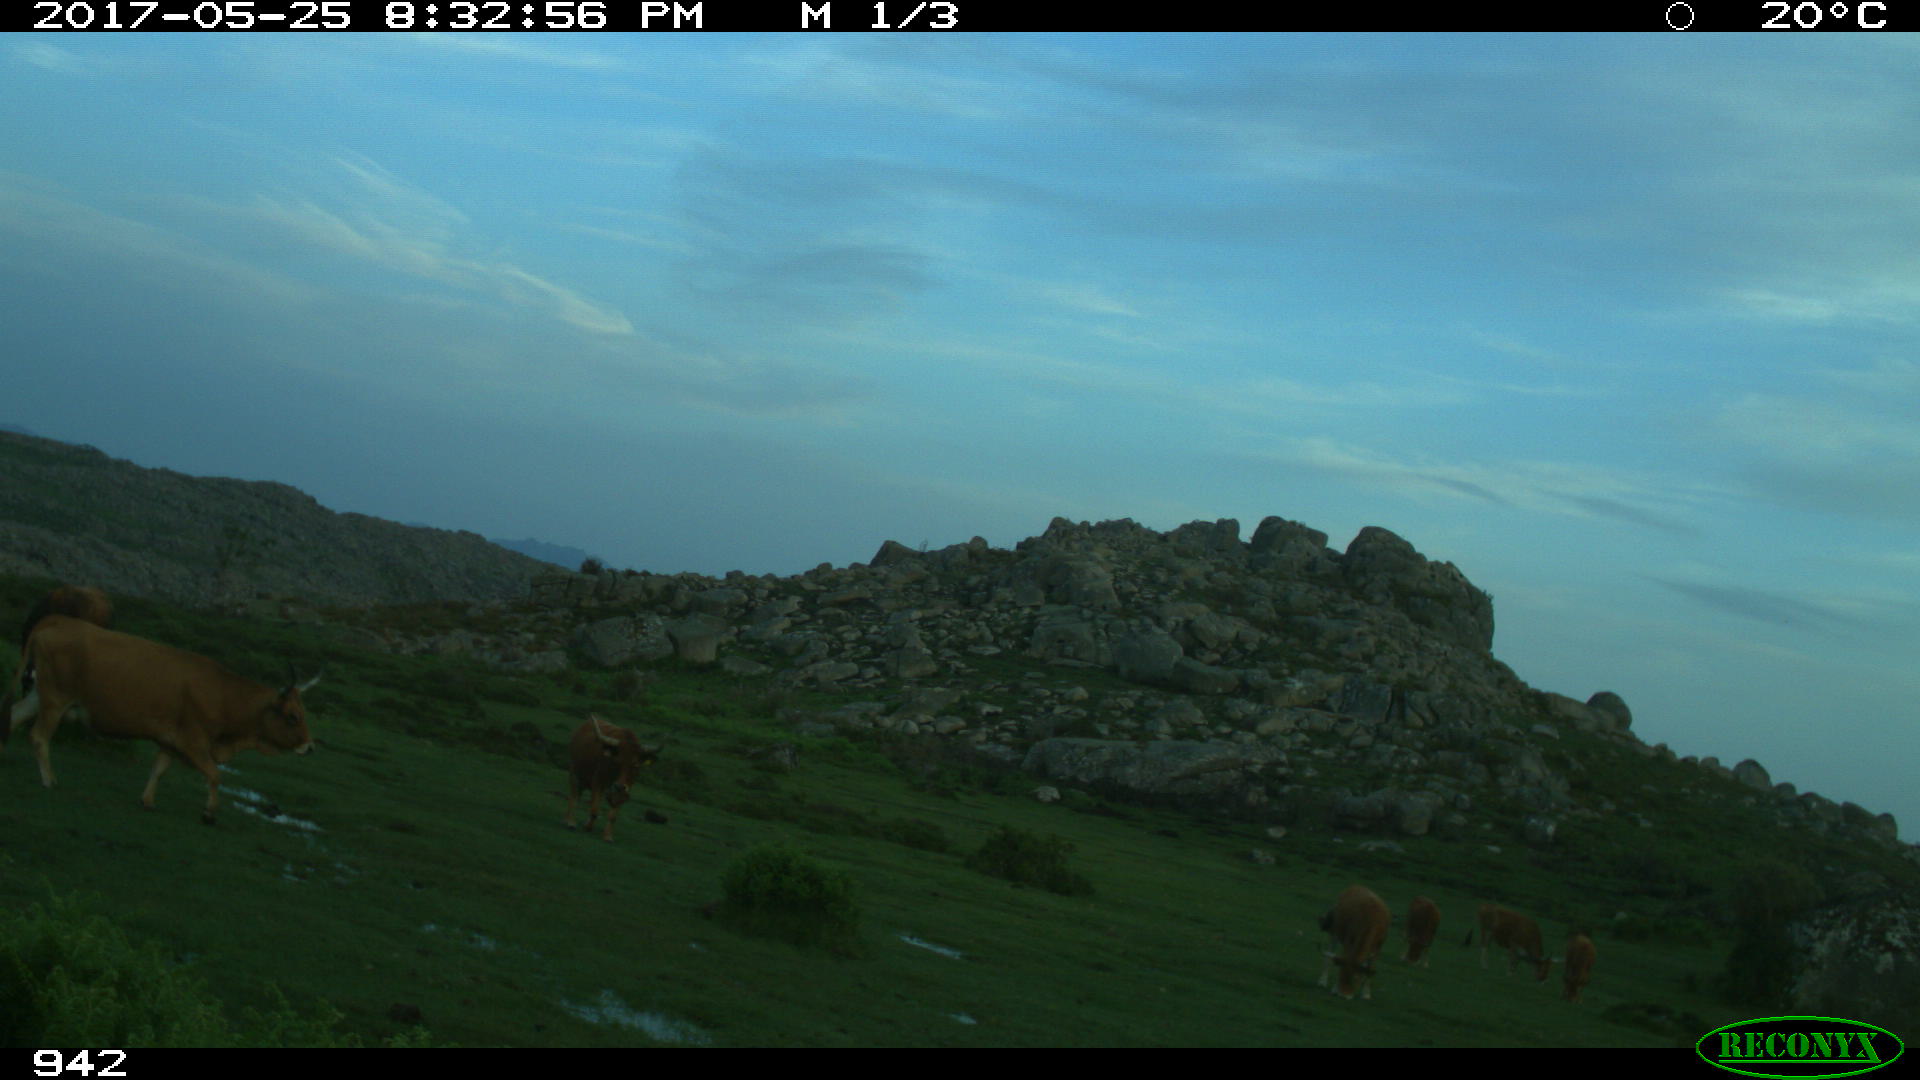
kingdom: Animalia
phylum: Chordata
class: Mammalia
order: Artiodactyla
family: Bovidae
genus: Bos
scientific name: Bos taurus
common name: Domesticated cattle
